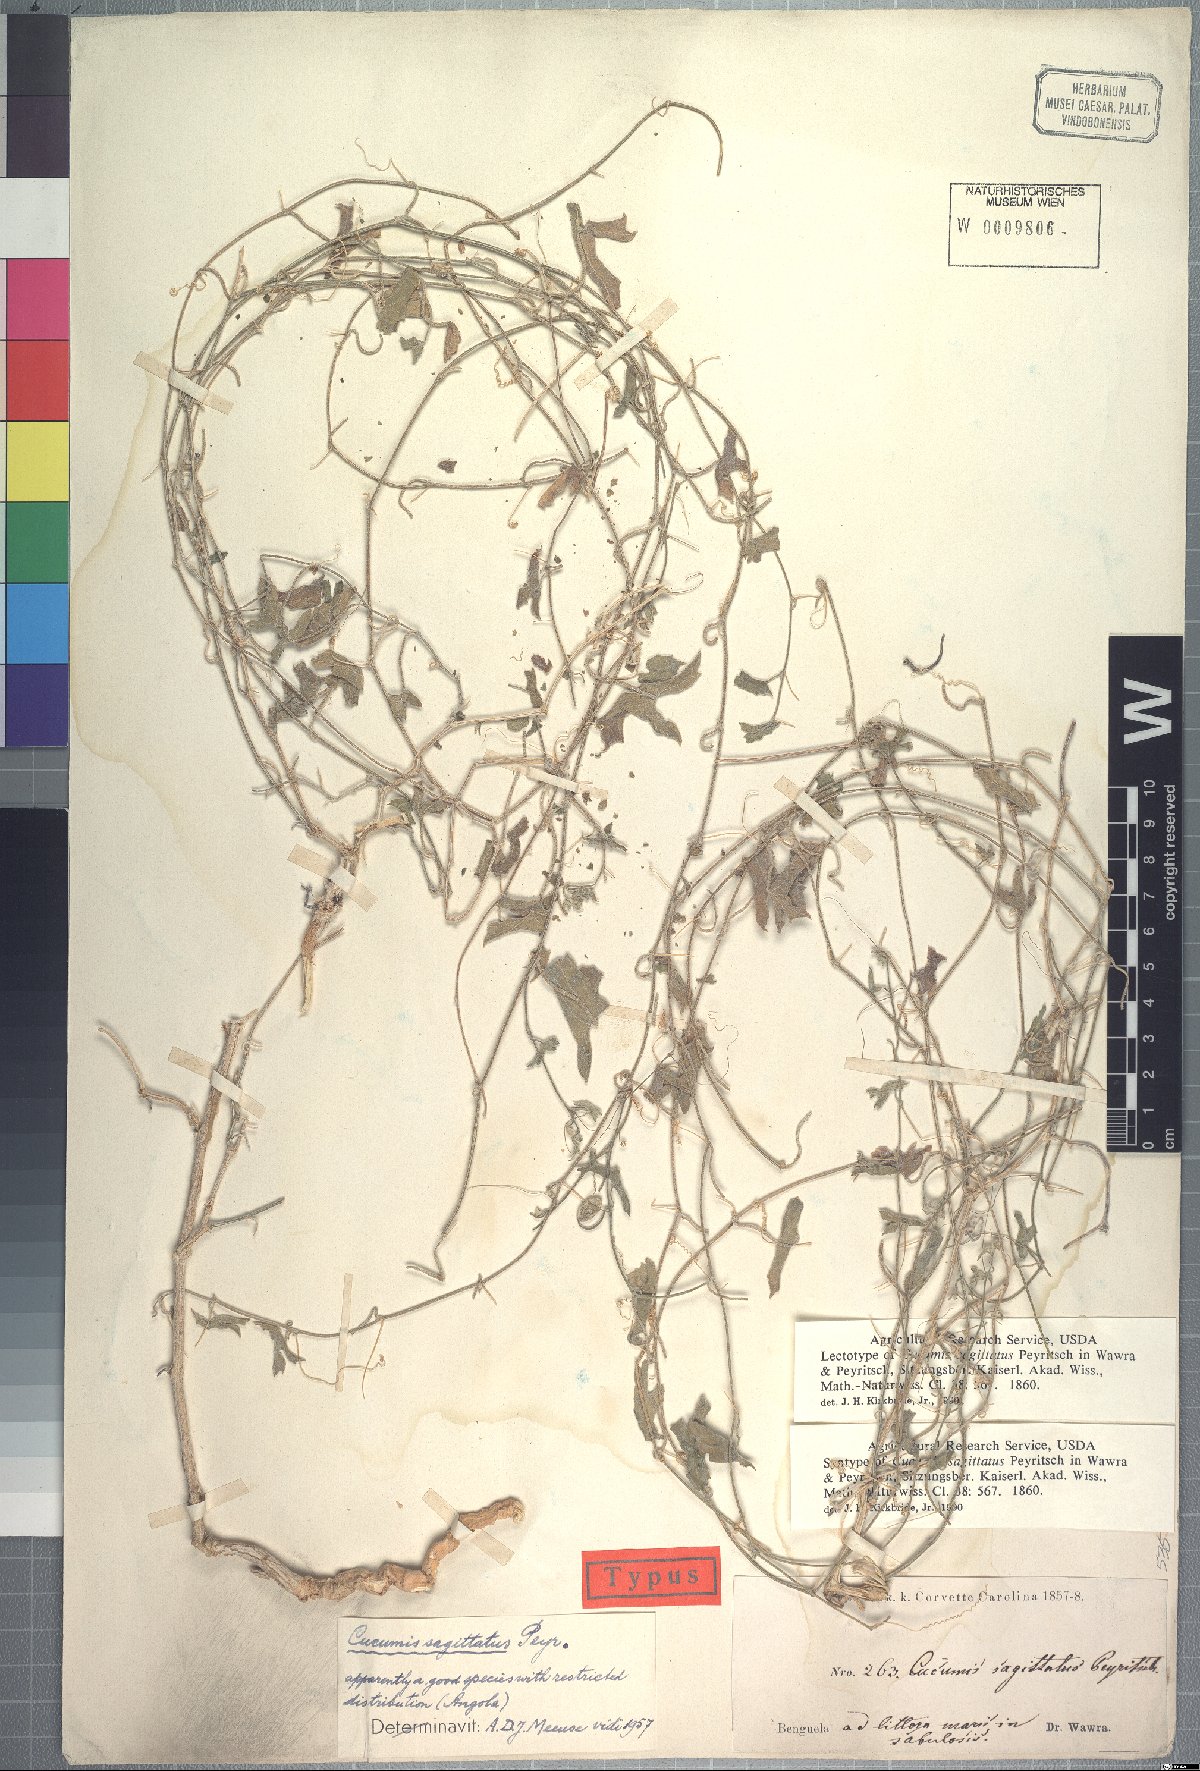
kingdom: Plantae
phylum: Tracheophyta
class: Magnoliopsida
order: Cucurbitales
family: Cucurbitaceae
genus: Cucumis
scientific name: Cucumis sagittatus
